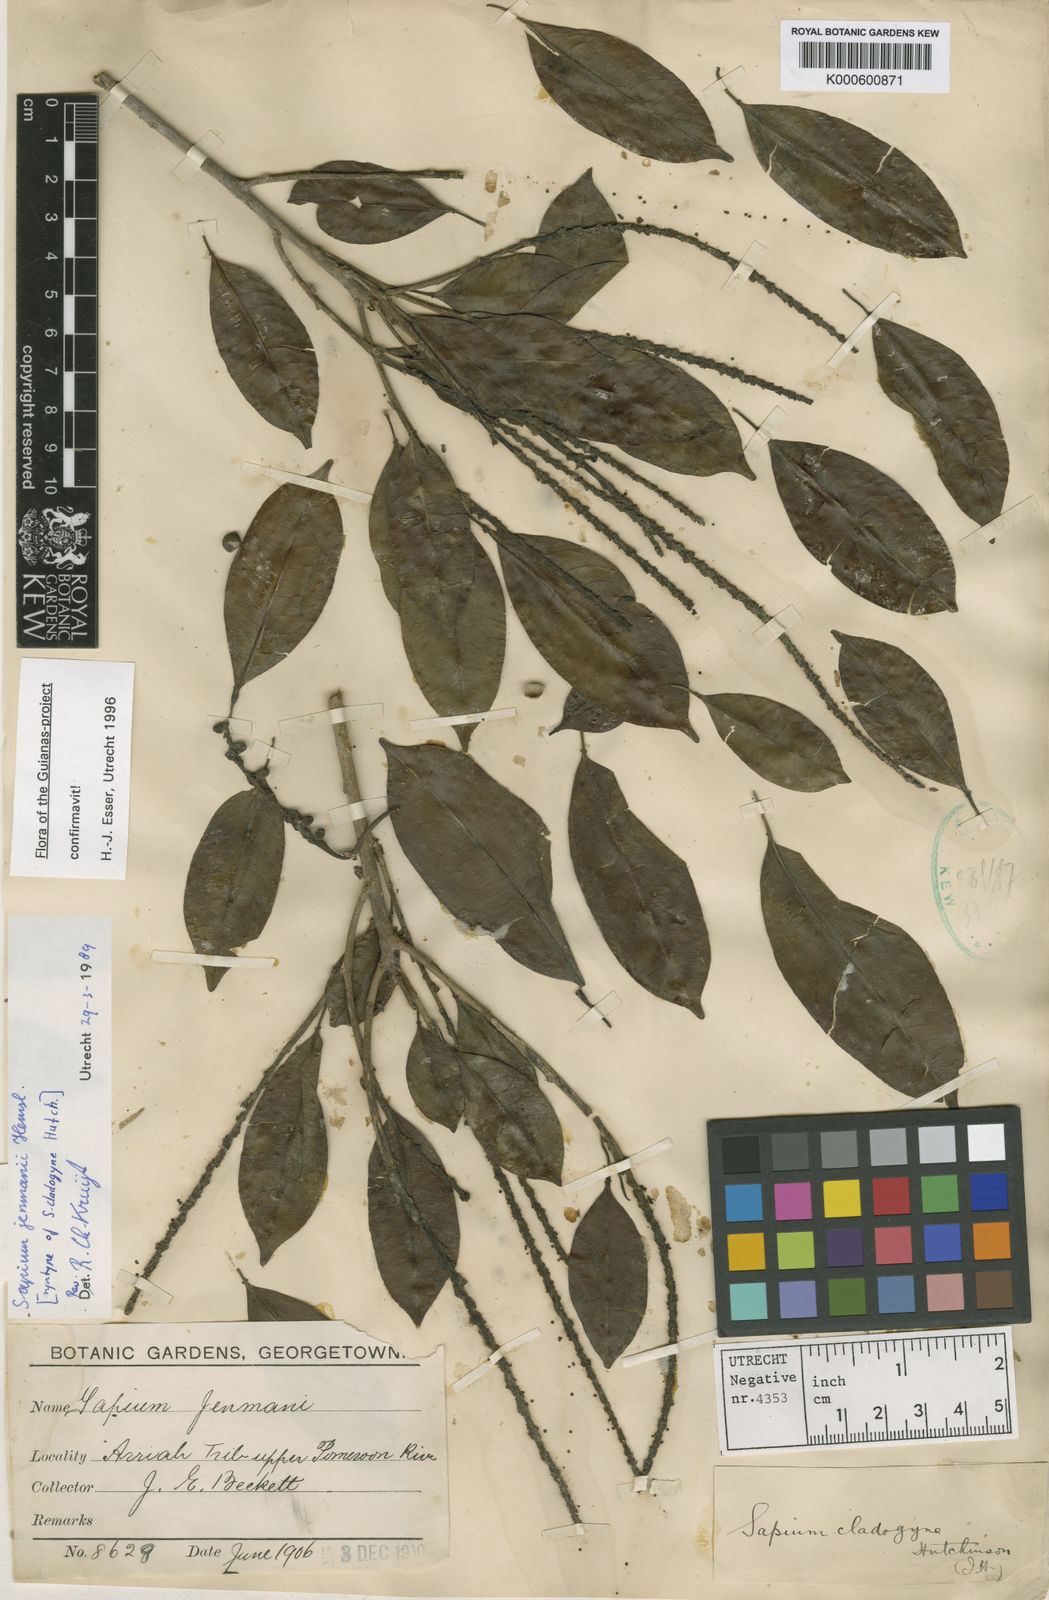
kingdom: Plantae
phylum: Tracheophyta
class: Magnoliopsida
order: Malpighiales
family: Euphorbiaceae
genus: Sapium
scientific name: Sapium jenmannii
